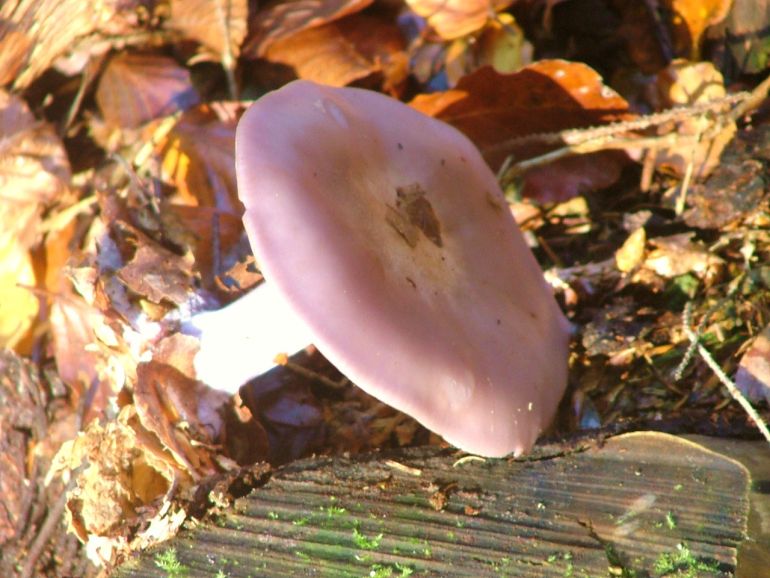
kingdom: Fungi
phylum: Basidiomycota
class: Agaricomycetes
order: Agaricales
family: Tricholomataceae
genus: Lepista
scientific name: Lepista nuda
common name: violet hekseringshat
